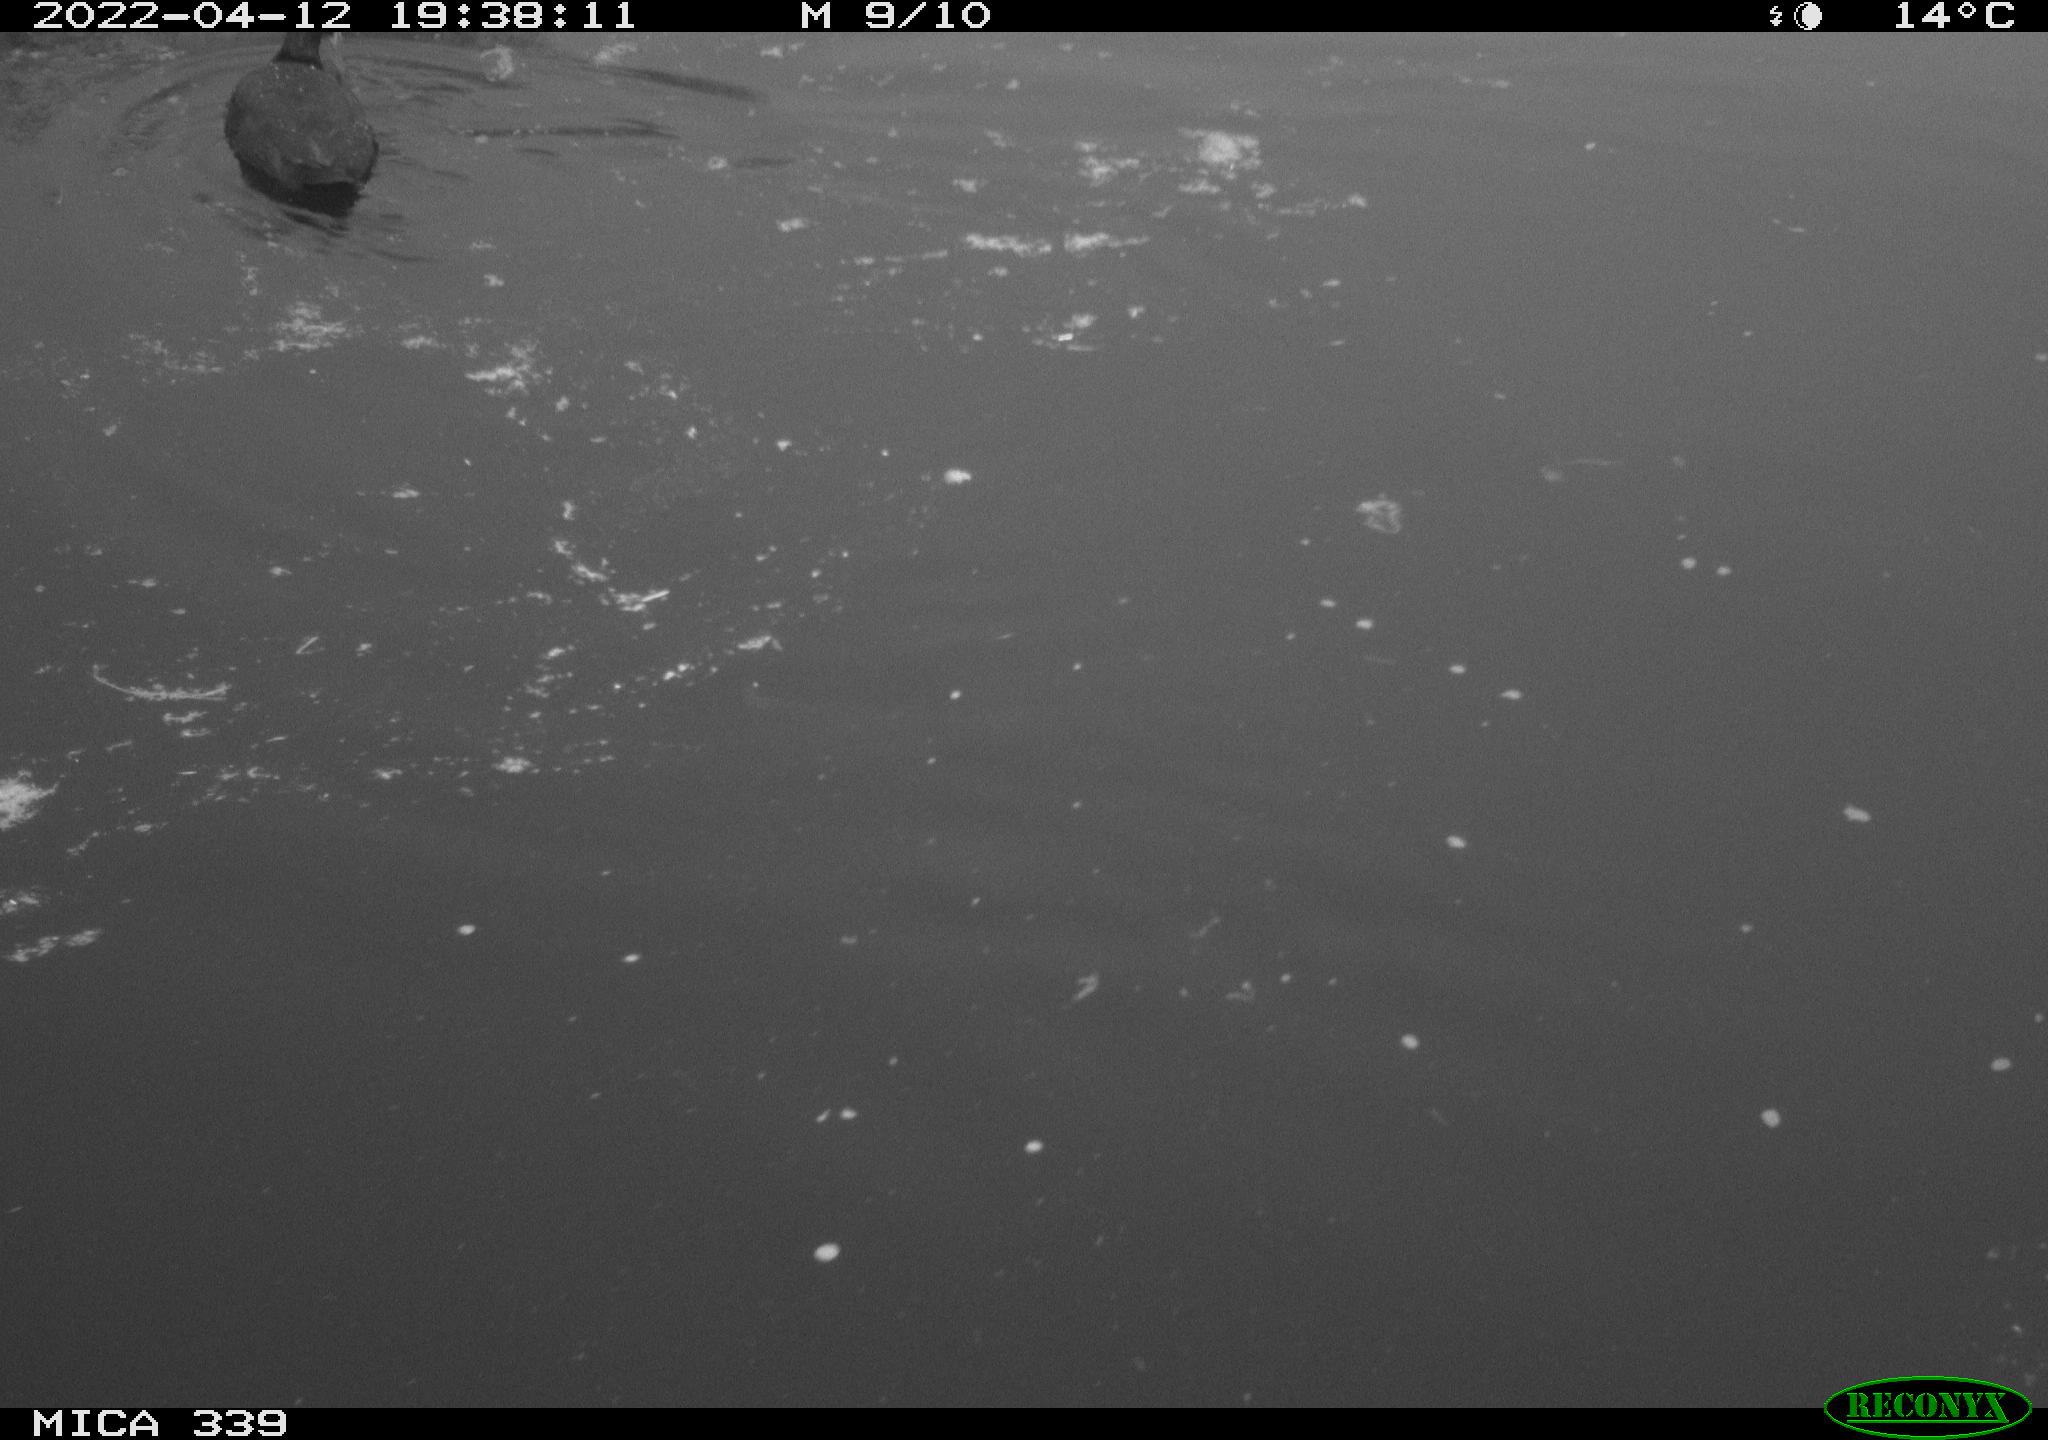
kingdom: Animalia
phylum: Chordata
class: Aves
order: Gruiformes
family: Rallidae
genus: Fulica
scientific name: Fulica atra
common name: Eurasian coot
